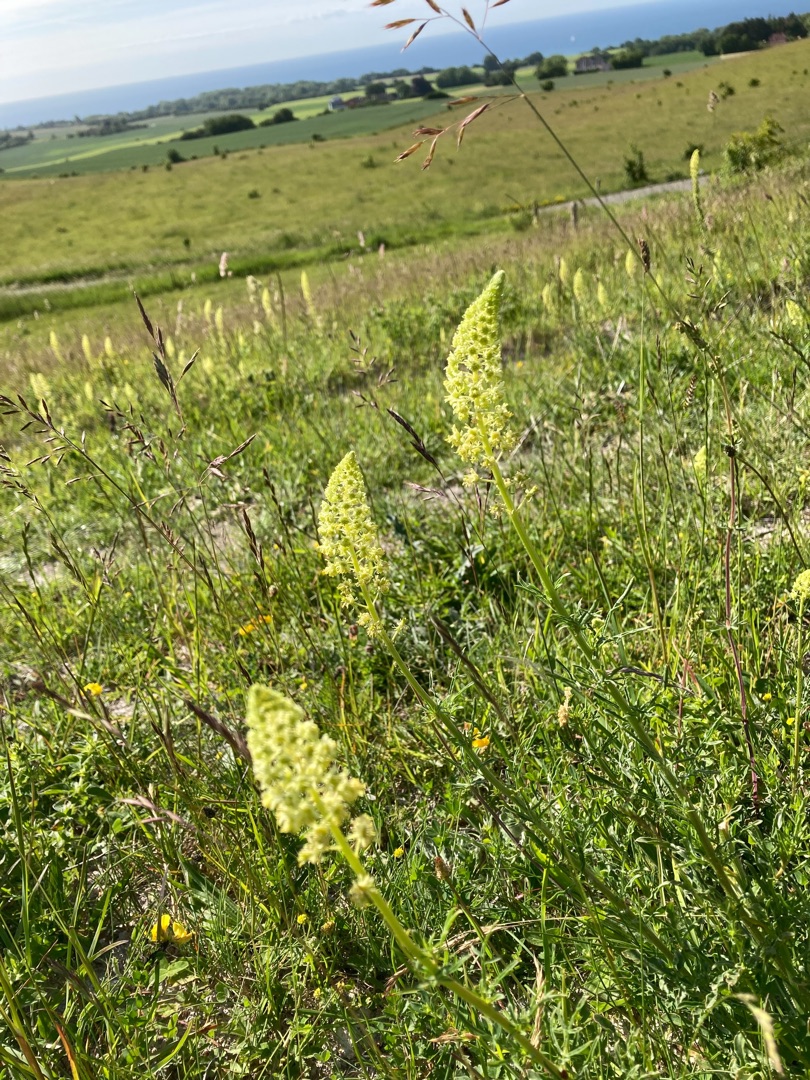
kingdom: Plantae
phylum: Tracheophyta
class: Magnoliopsida
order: Brassicales
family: Resedaceae
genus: Reseda
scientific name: Reseda lutea
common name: Gul reseda
